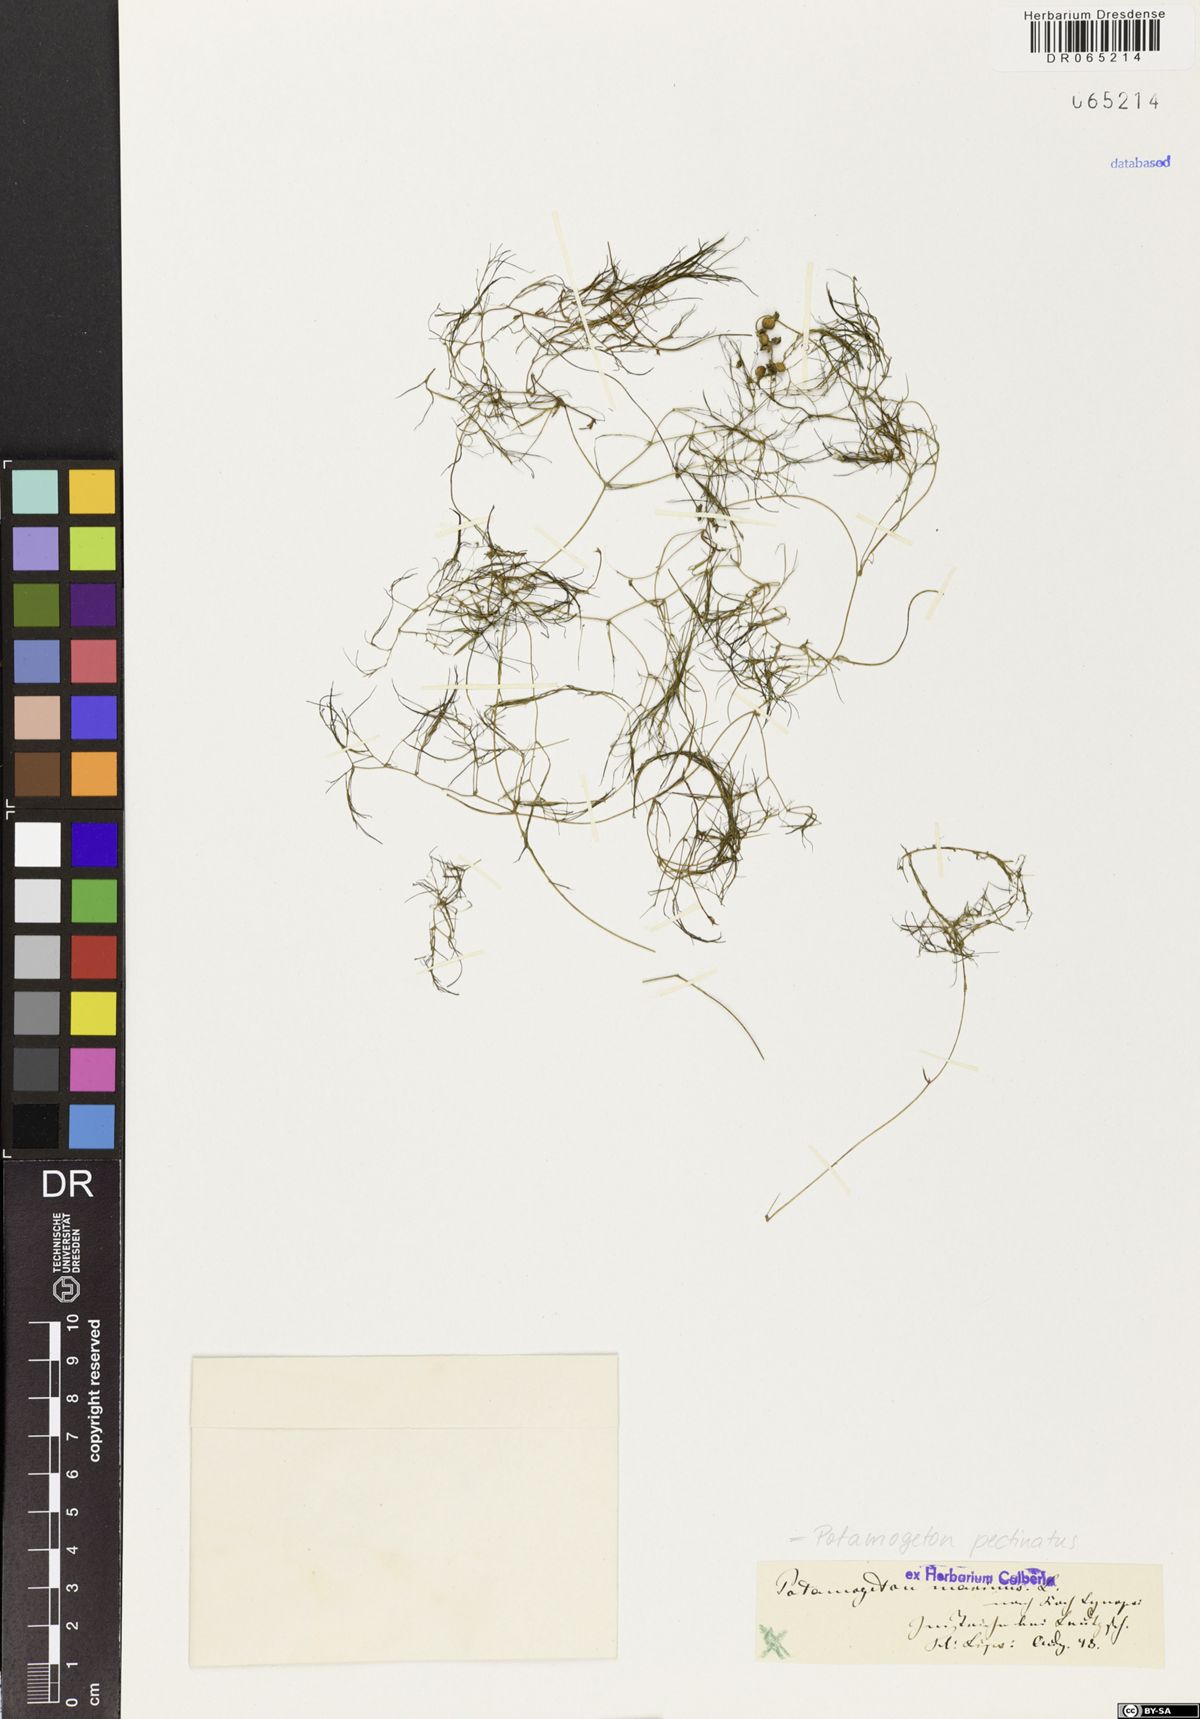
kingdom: Plantae
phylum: Tracheophyta
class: Liliopsida
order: Alismatales
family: Potamogetonaceae
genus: Stuckenia
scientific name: Stuckenia pectinata
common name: Sago pondweed
